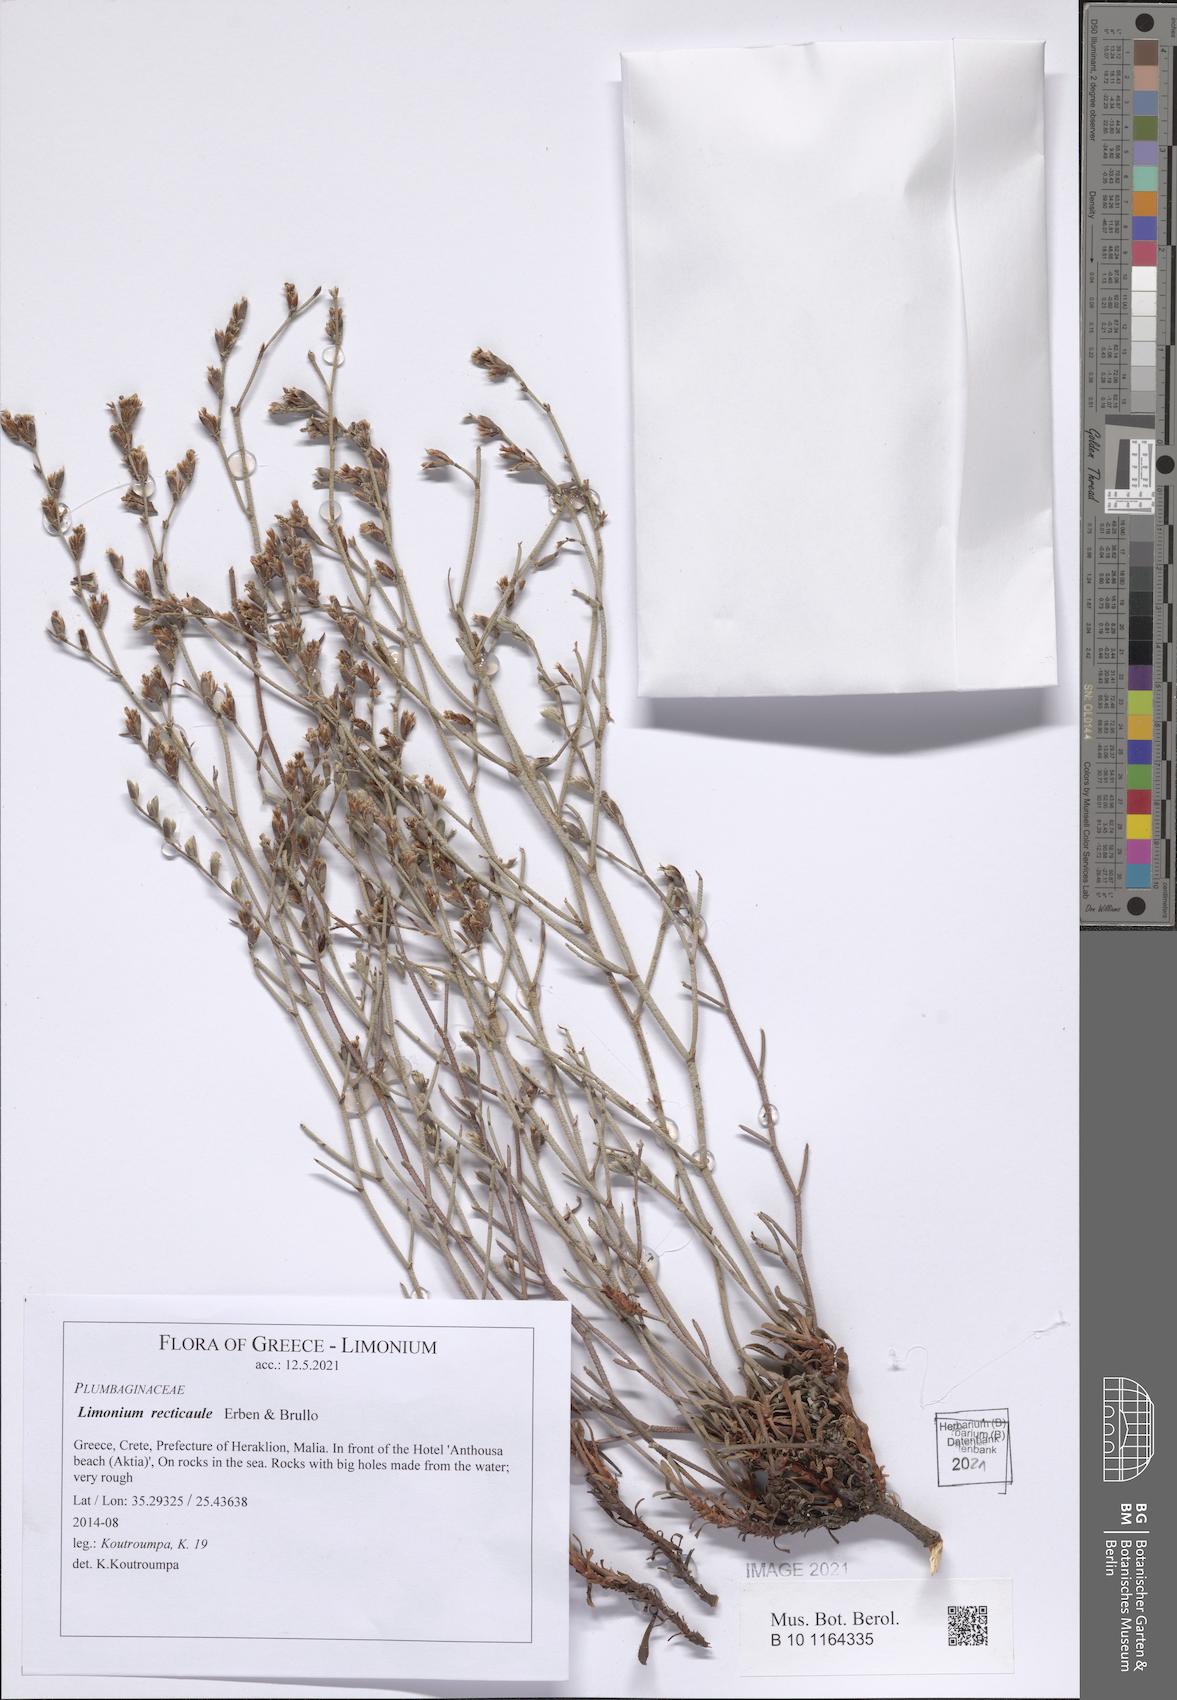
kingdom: Plantae
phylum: Tracheophyta
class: Magnoliopsida
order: Caryophyllales
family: Plumbaginaceae
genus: Limonium
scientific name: Limonium recticaule
